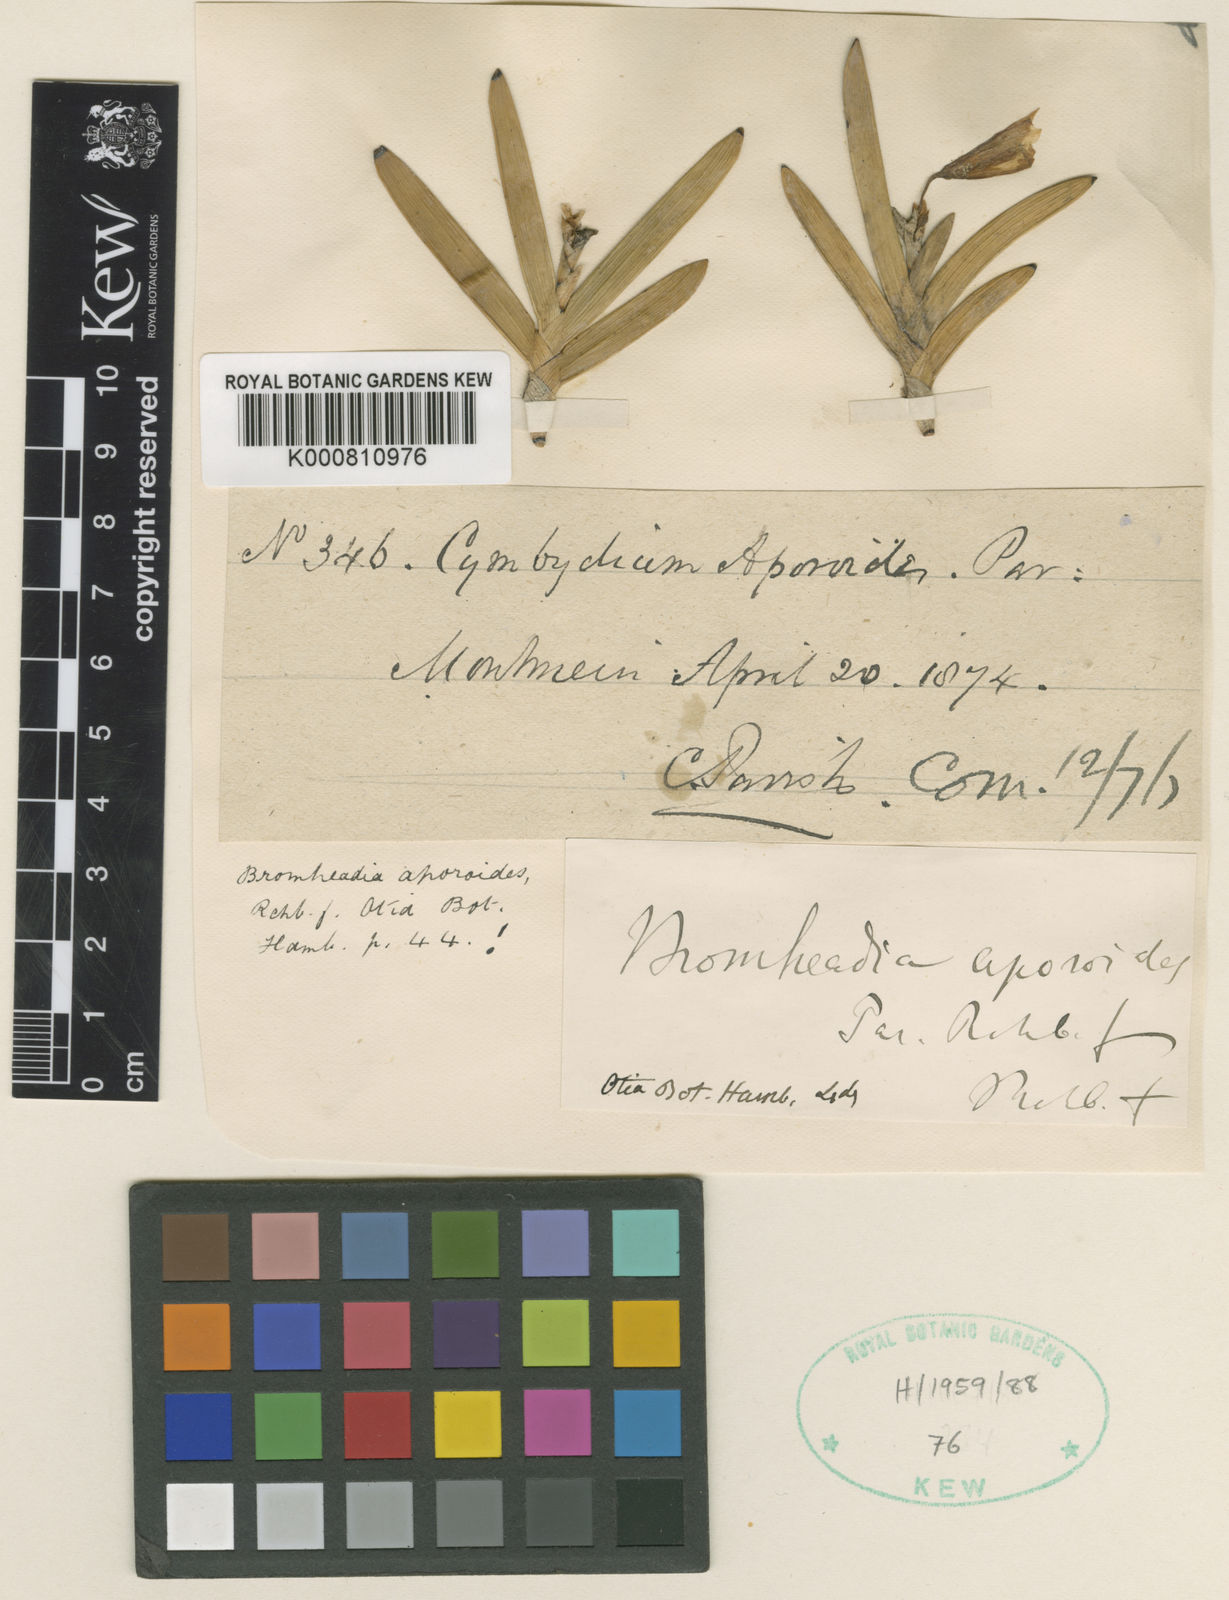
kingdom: Plantae
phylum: Tracheophyta
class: Liliopsida
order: Asparagales
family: Orchidaceae
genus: Bromheadia
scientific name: Bromheadia aporoides
